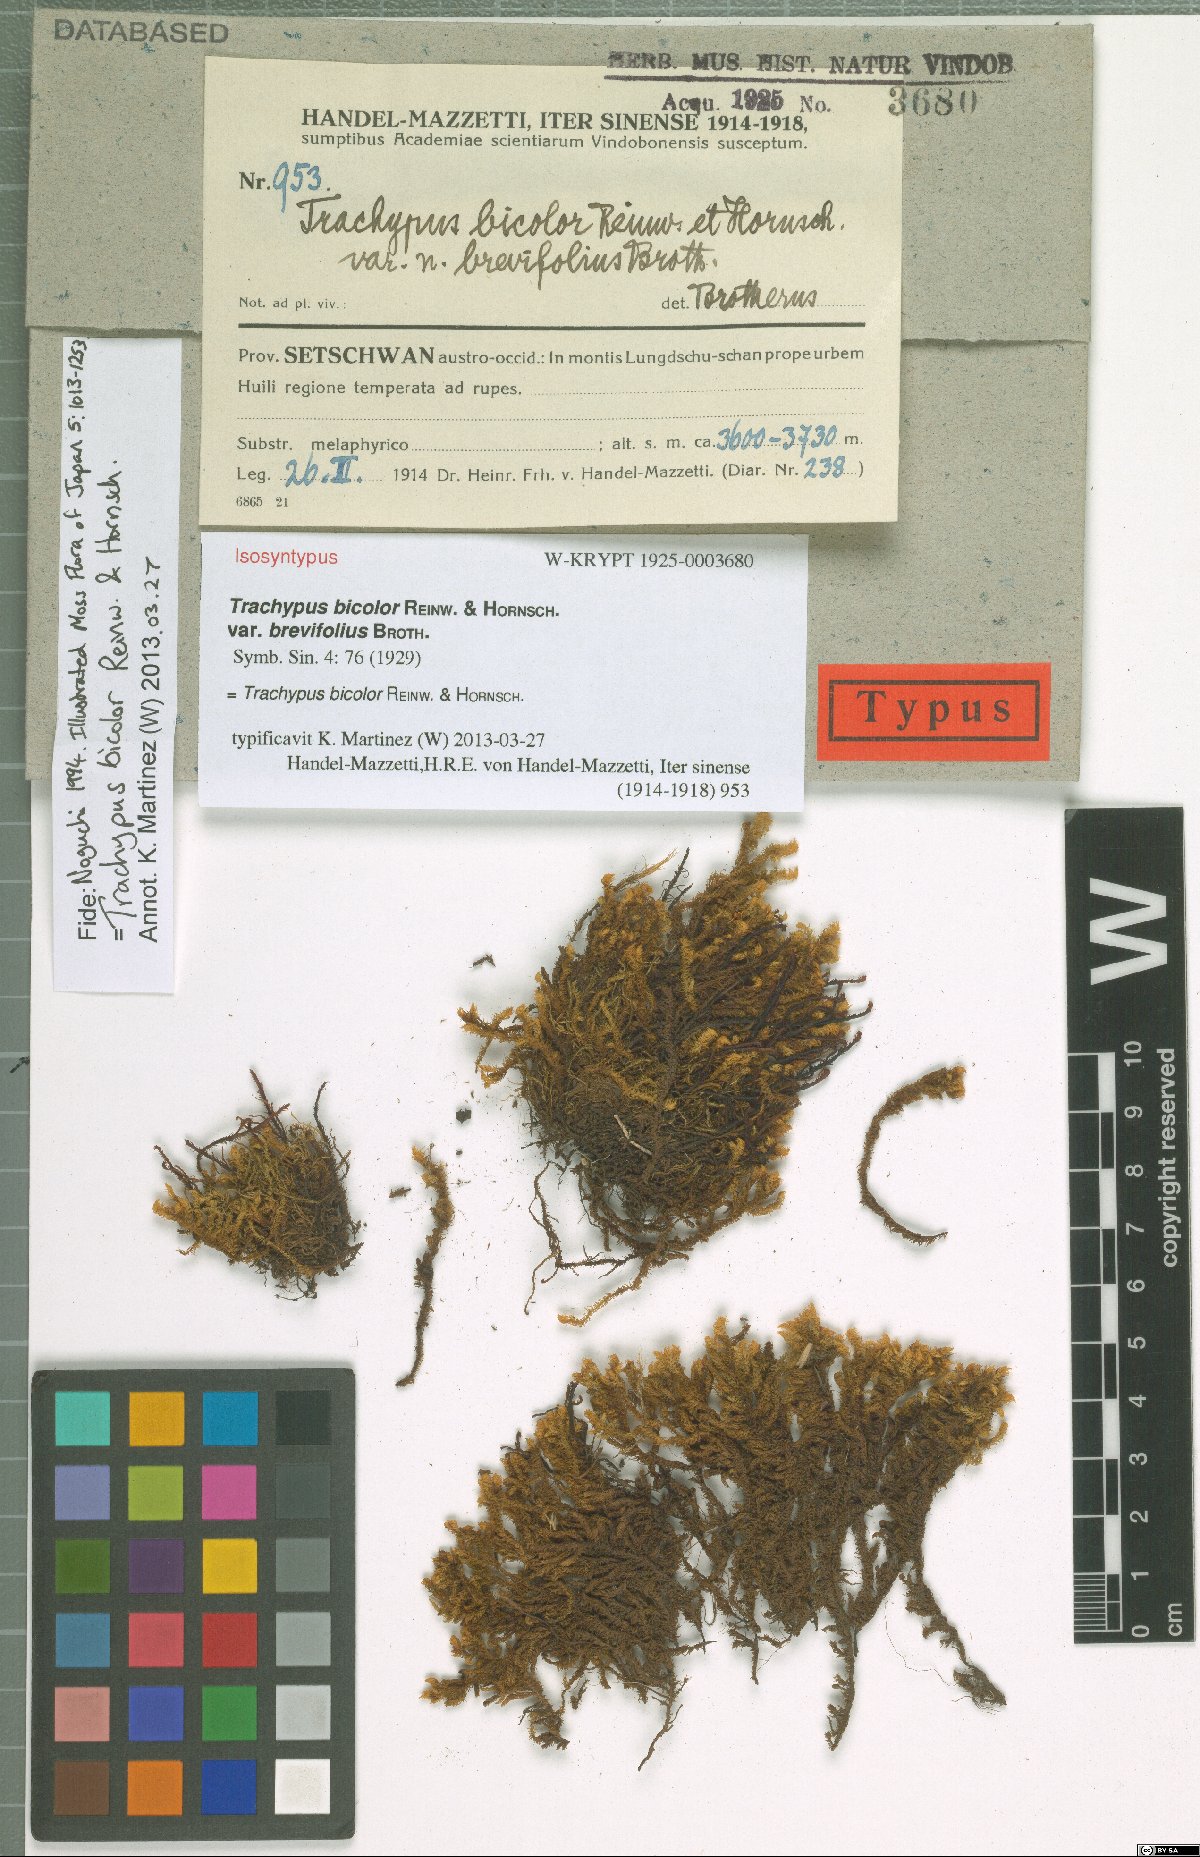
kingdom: Plantae
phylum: Bryophyta
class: Bryopsida
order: Hypnales
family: Meteoriaceae
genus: Trachypus
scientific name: Trachypus bicolor
